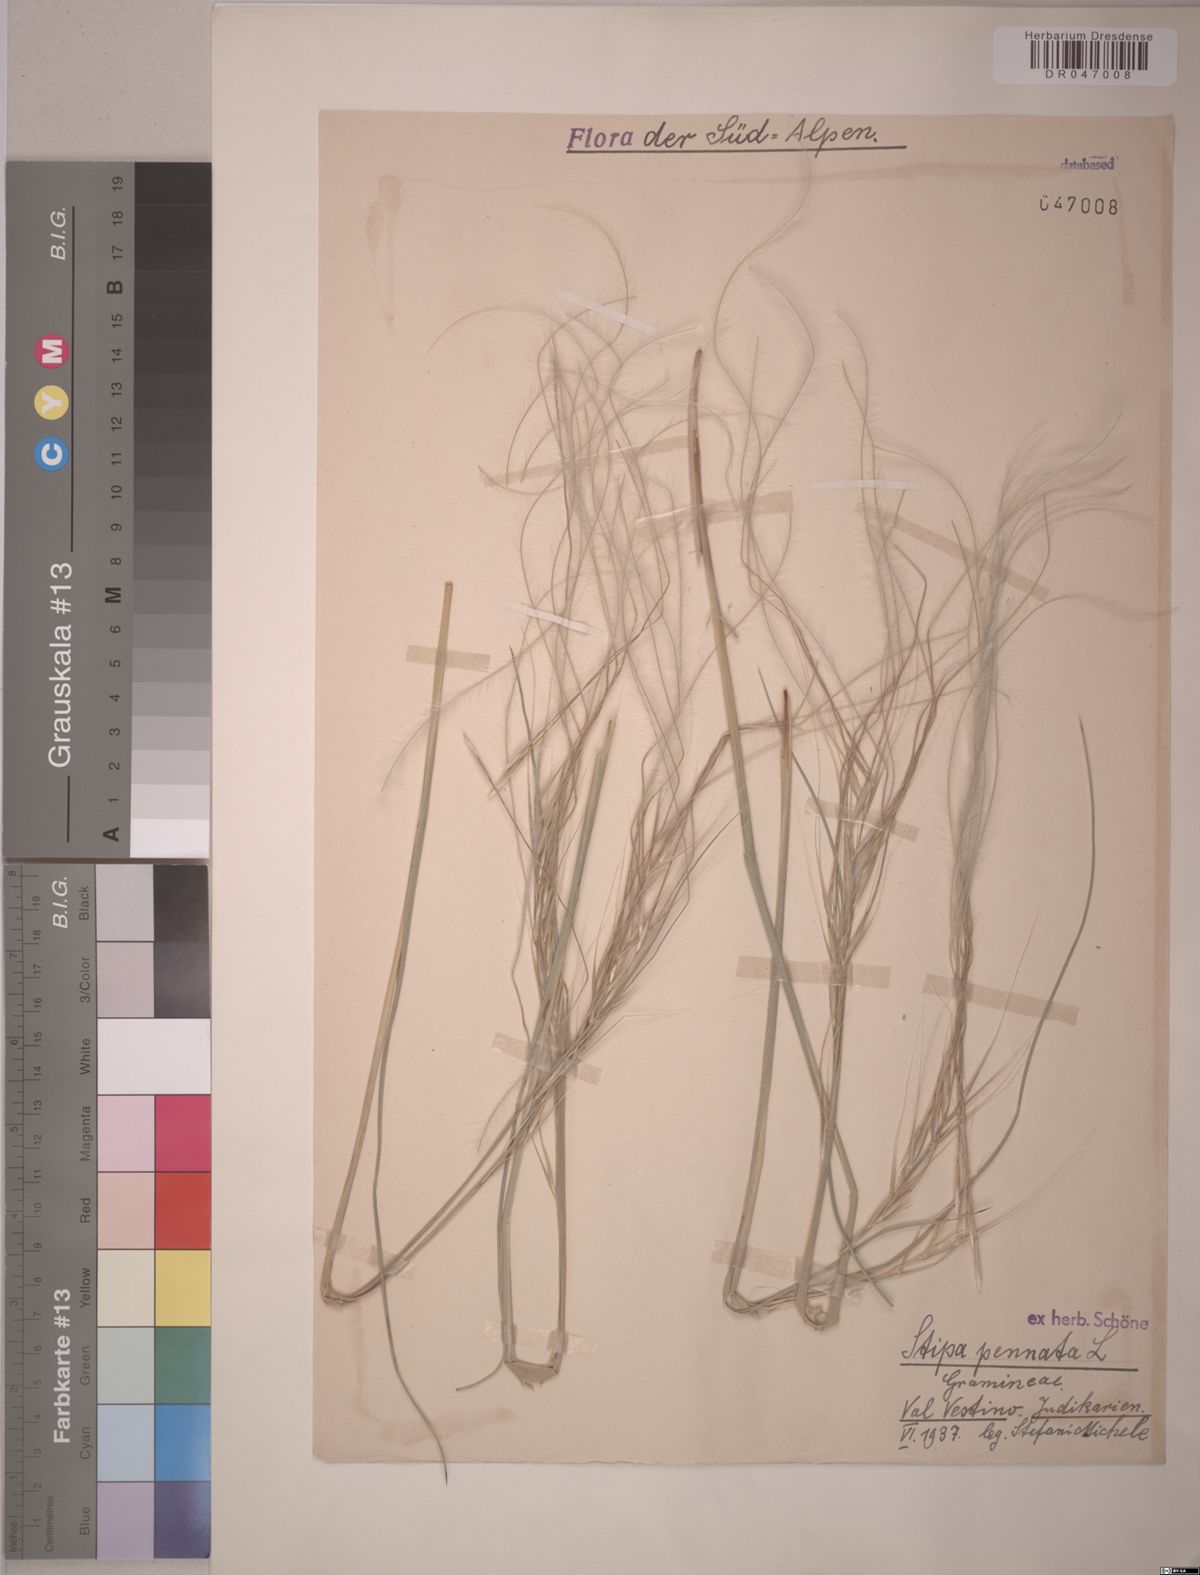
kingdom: Plantae
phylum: Tracheophyta
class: Liliopsida
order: Poales
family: Poaceae
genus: Stipa
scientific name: Stipa pennata
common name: European feather grass
